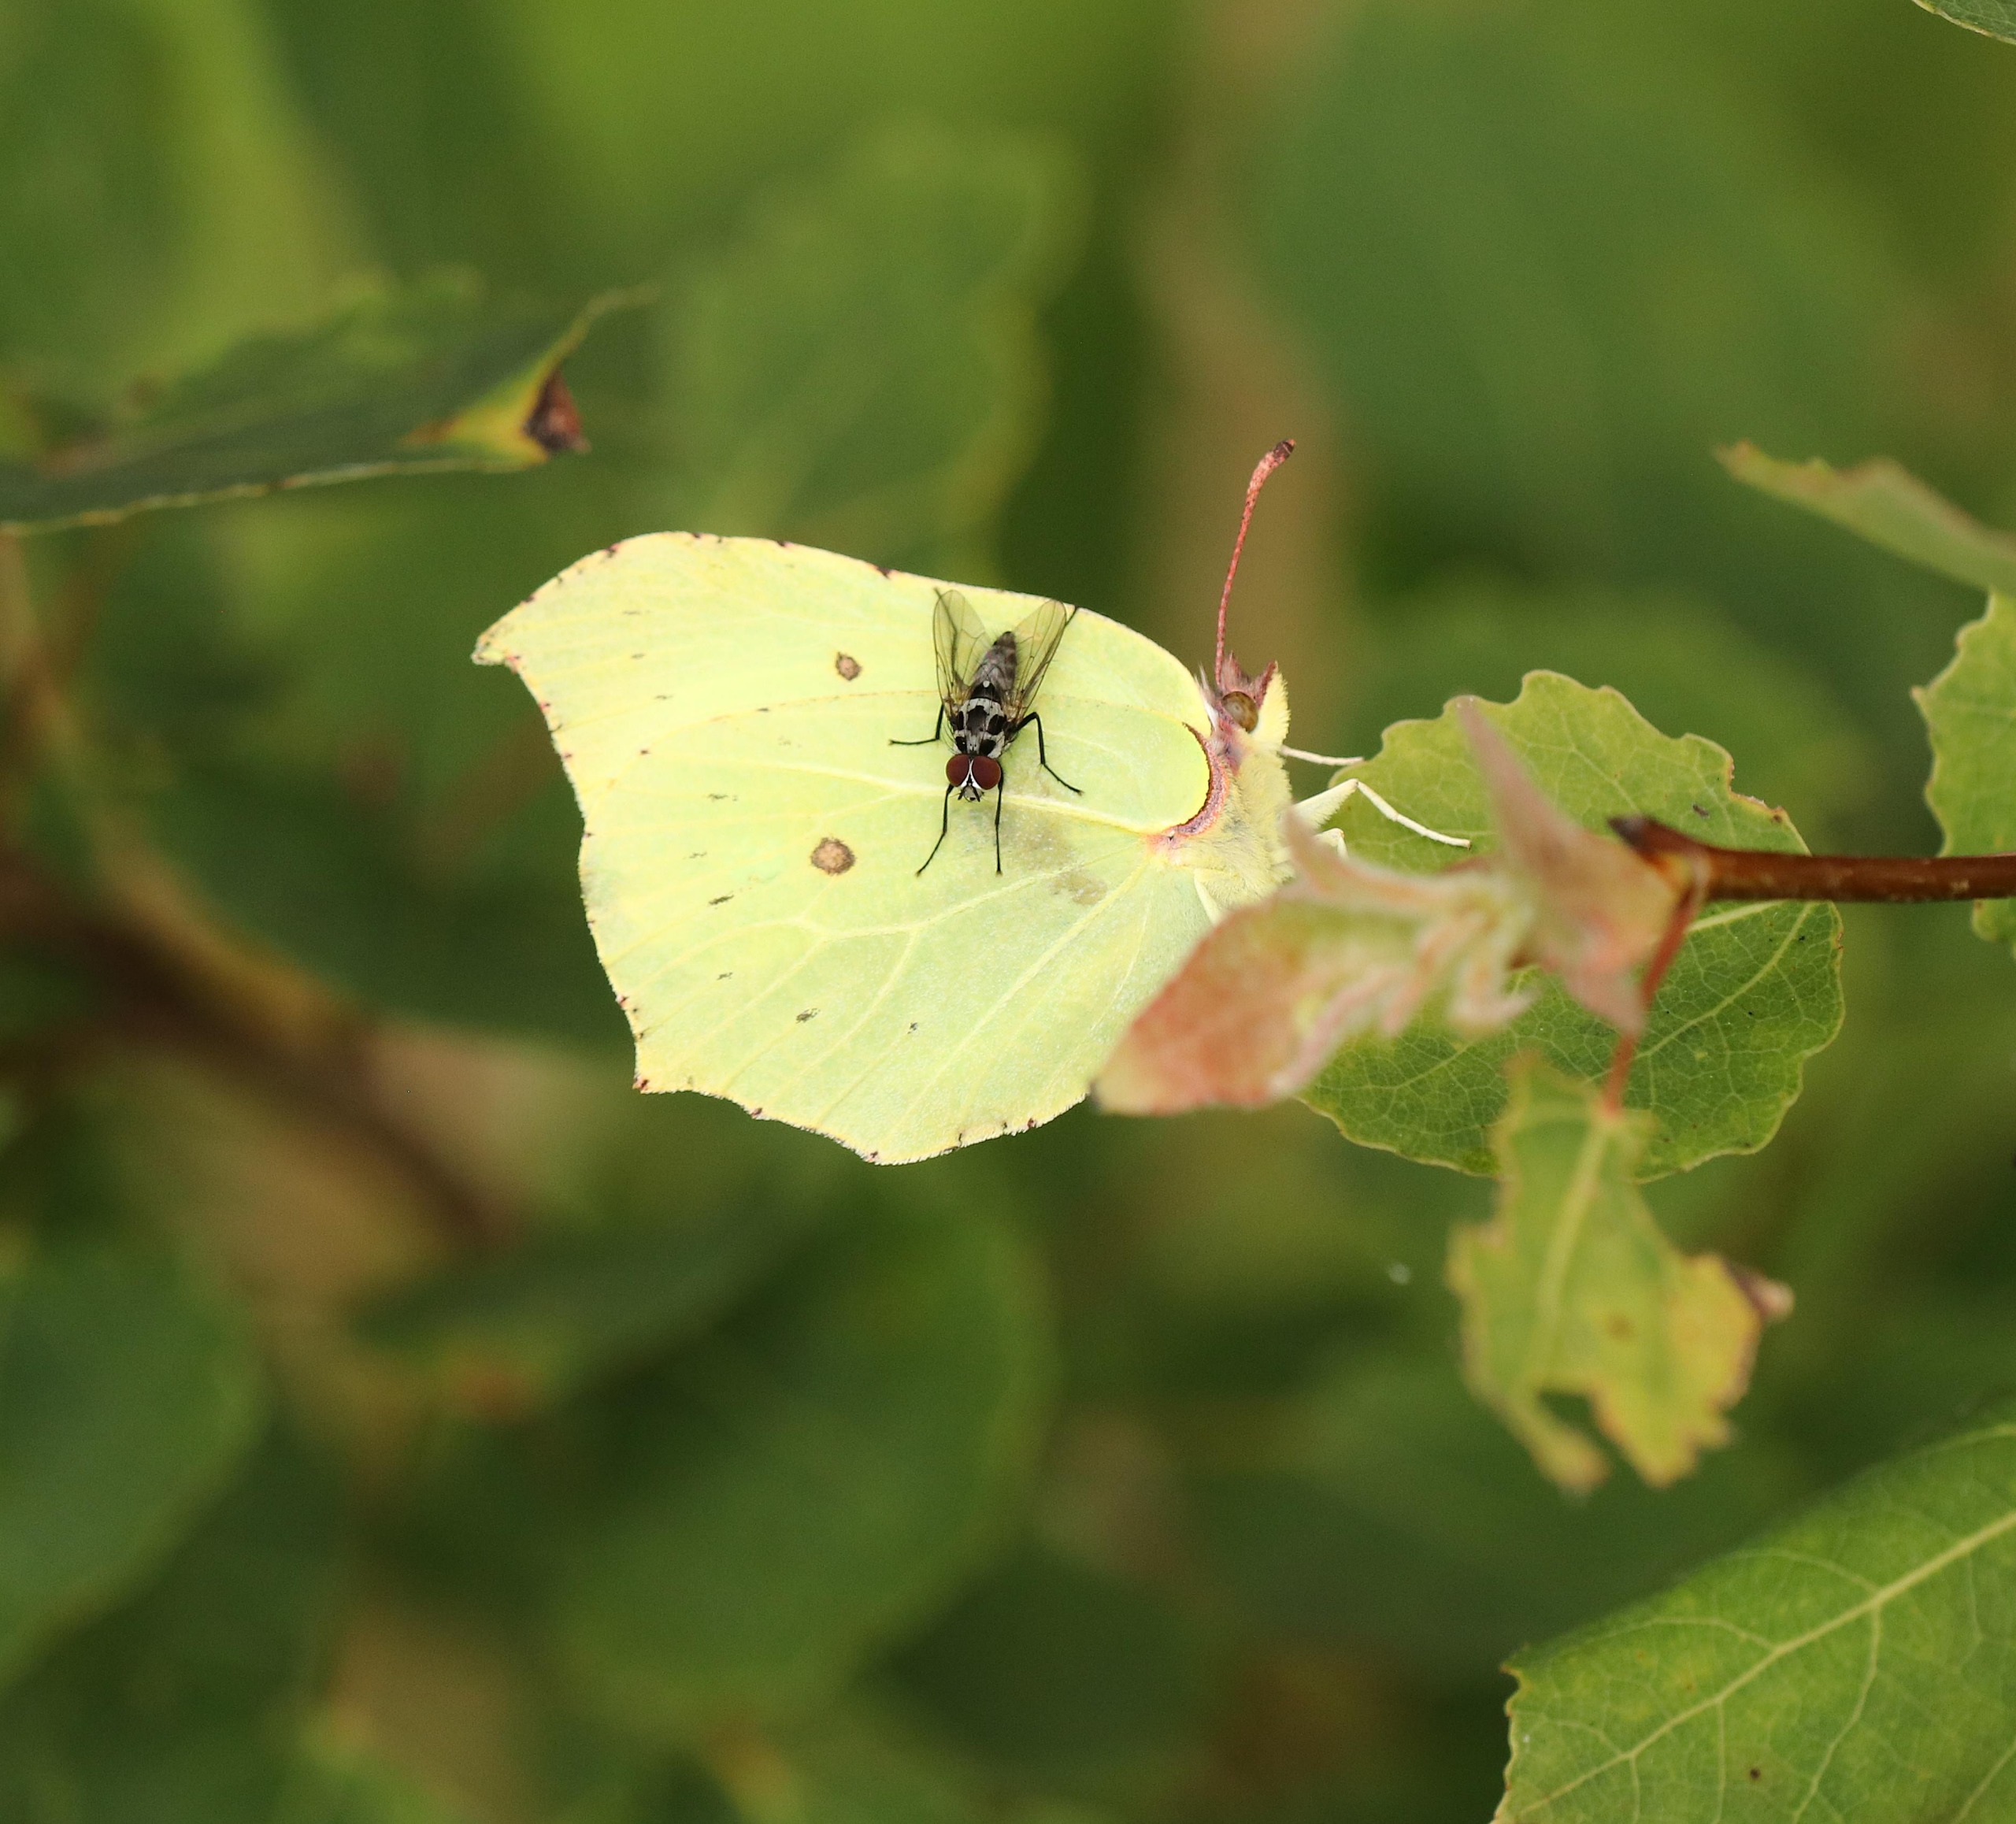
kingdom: Animalia
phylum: Arthropoda
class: Insecta
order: Lepidoptera
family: Pieridae
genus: Gonepteryx
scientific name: Gonepteryx rhamni
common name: Citronsommerfugl
